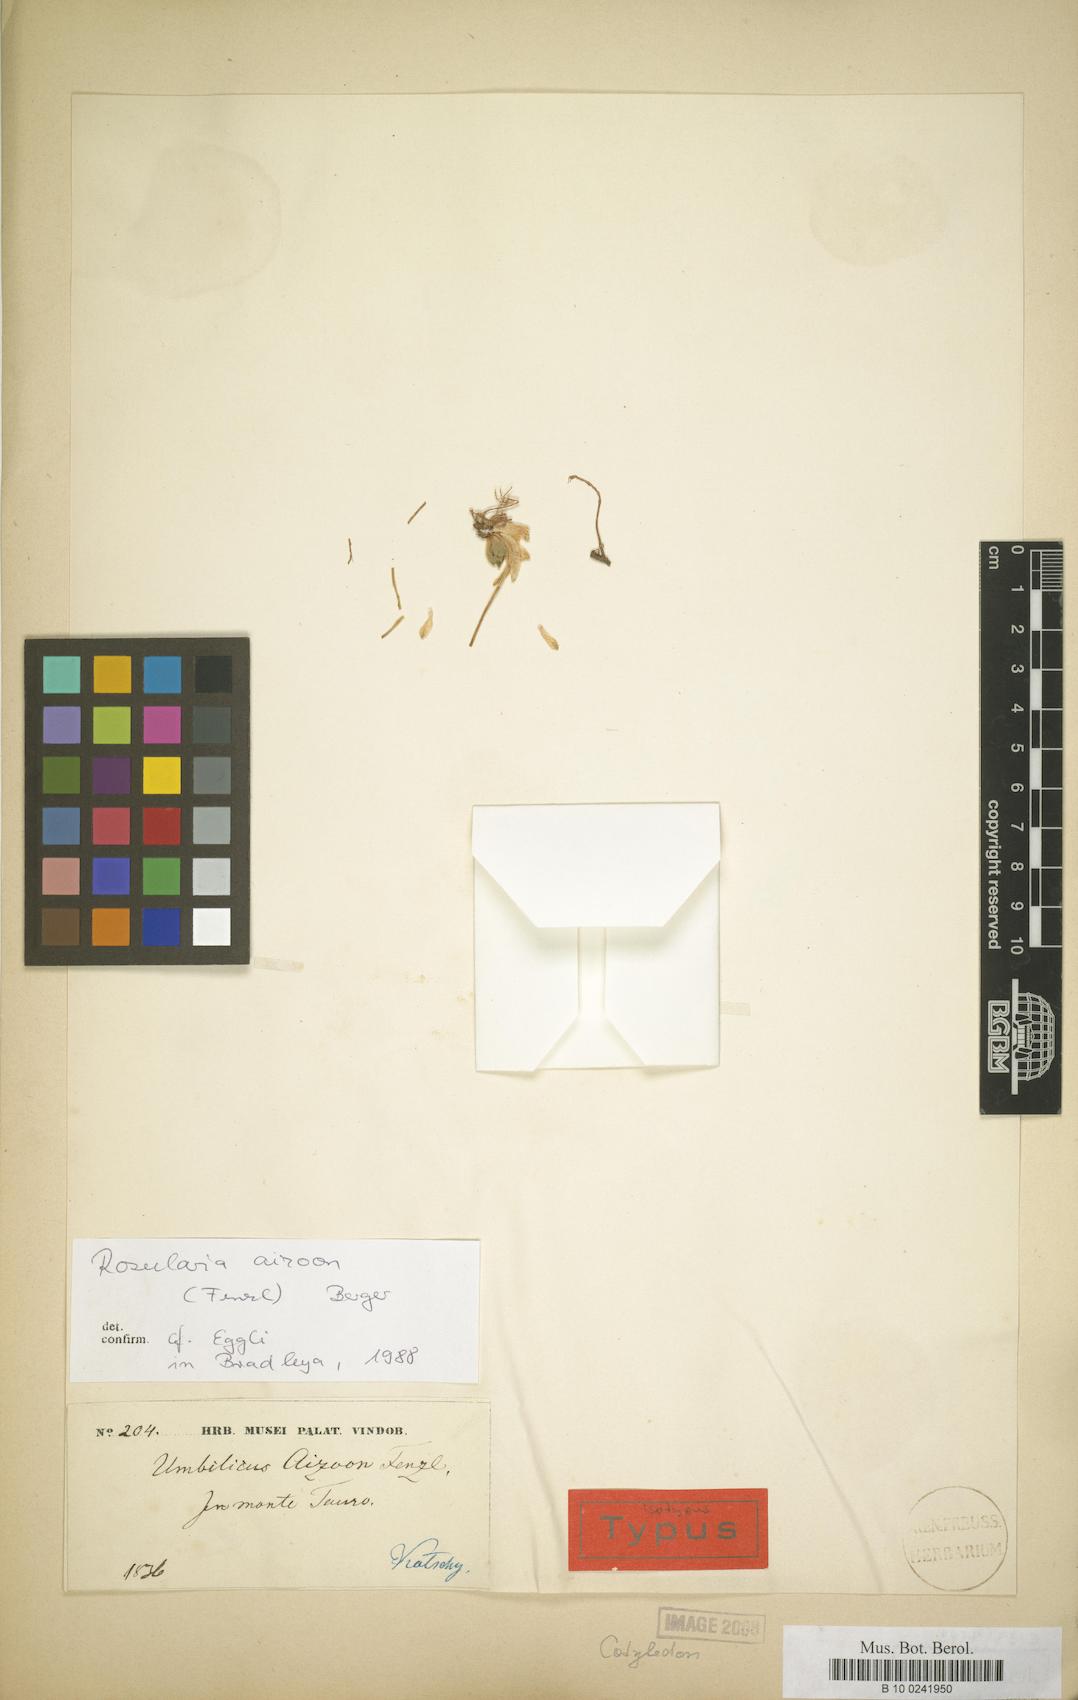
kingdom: Plantae
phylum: Tracheophyta
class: Magnoliopsida
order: Saxifragales
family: Crassulaceae
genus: Prometheum
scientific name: Prometheum aizoon
